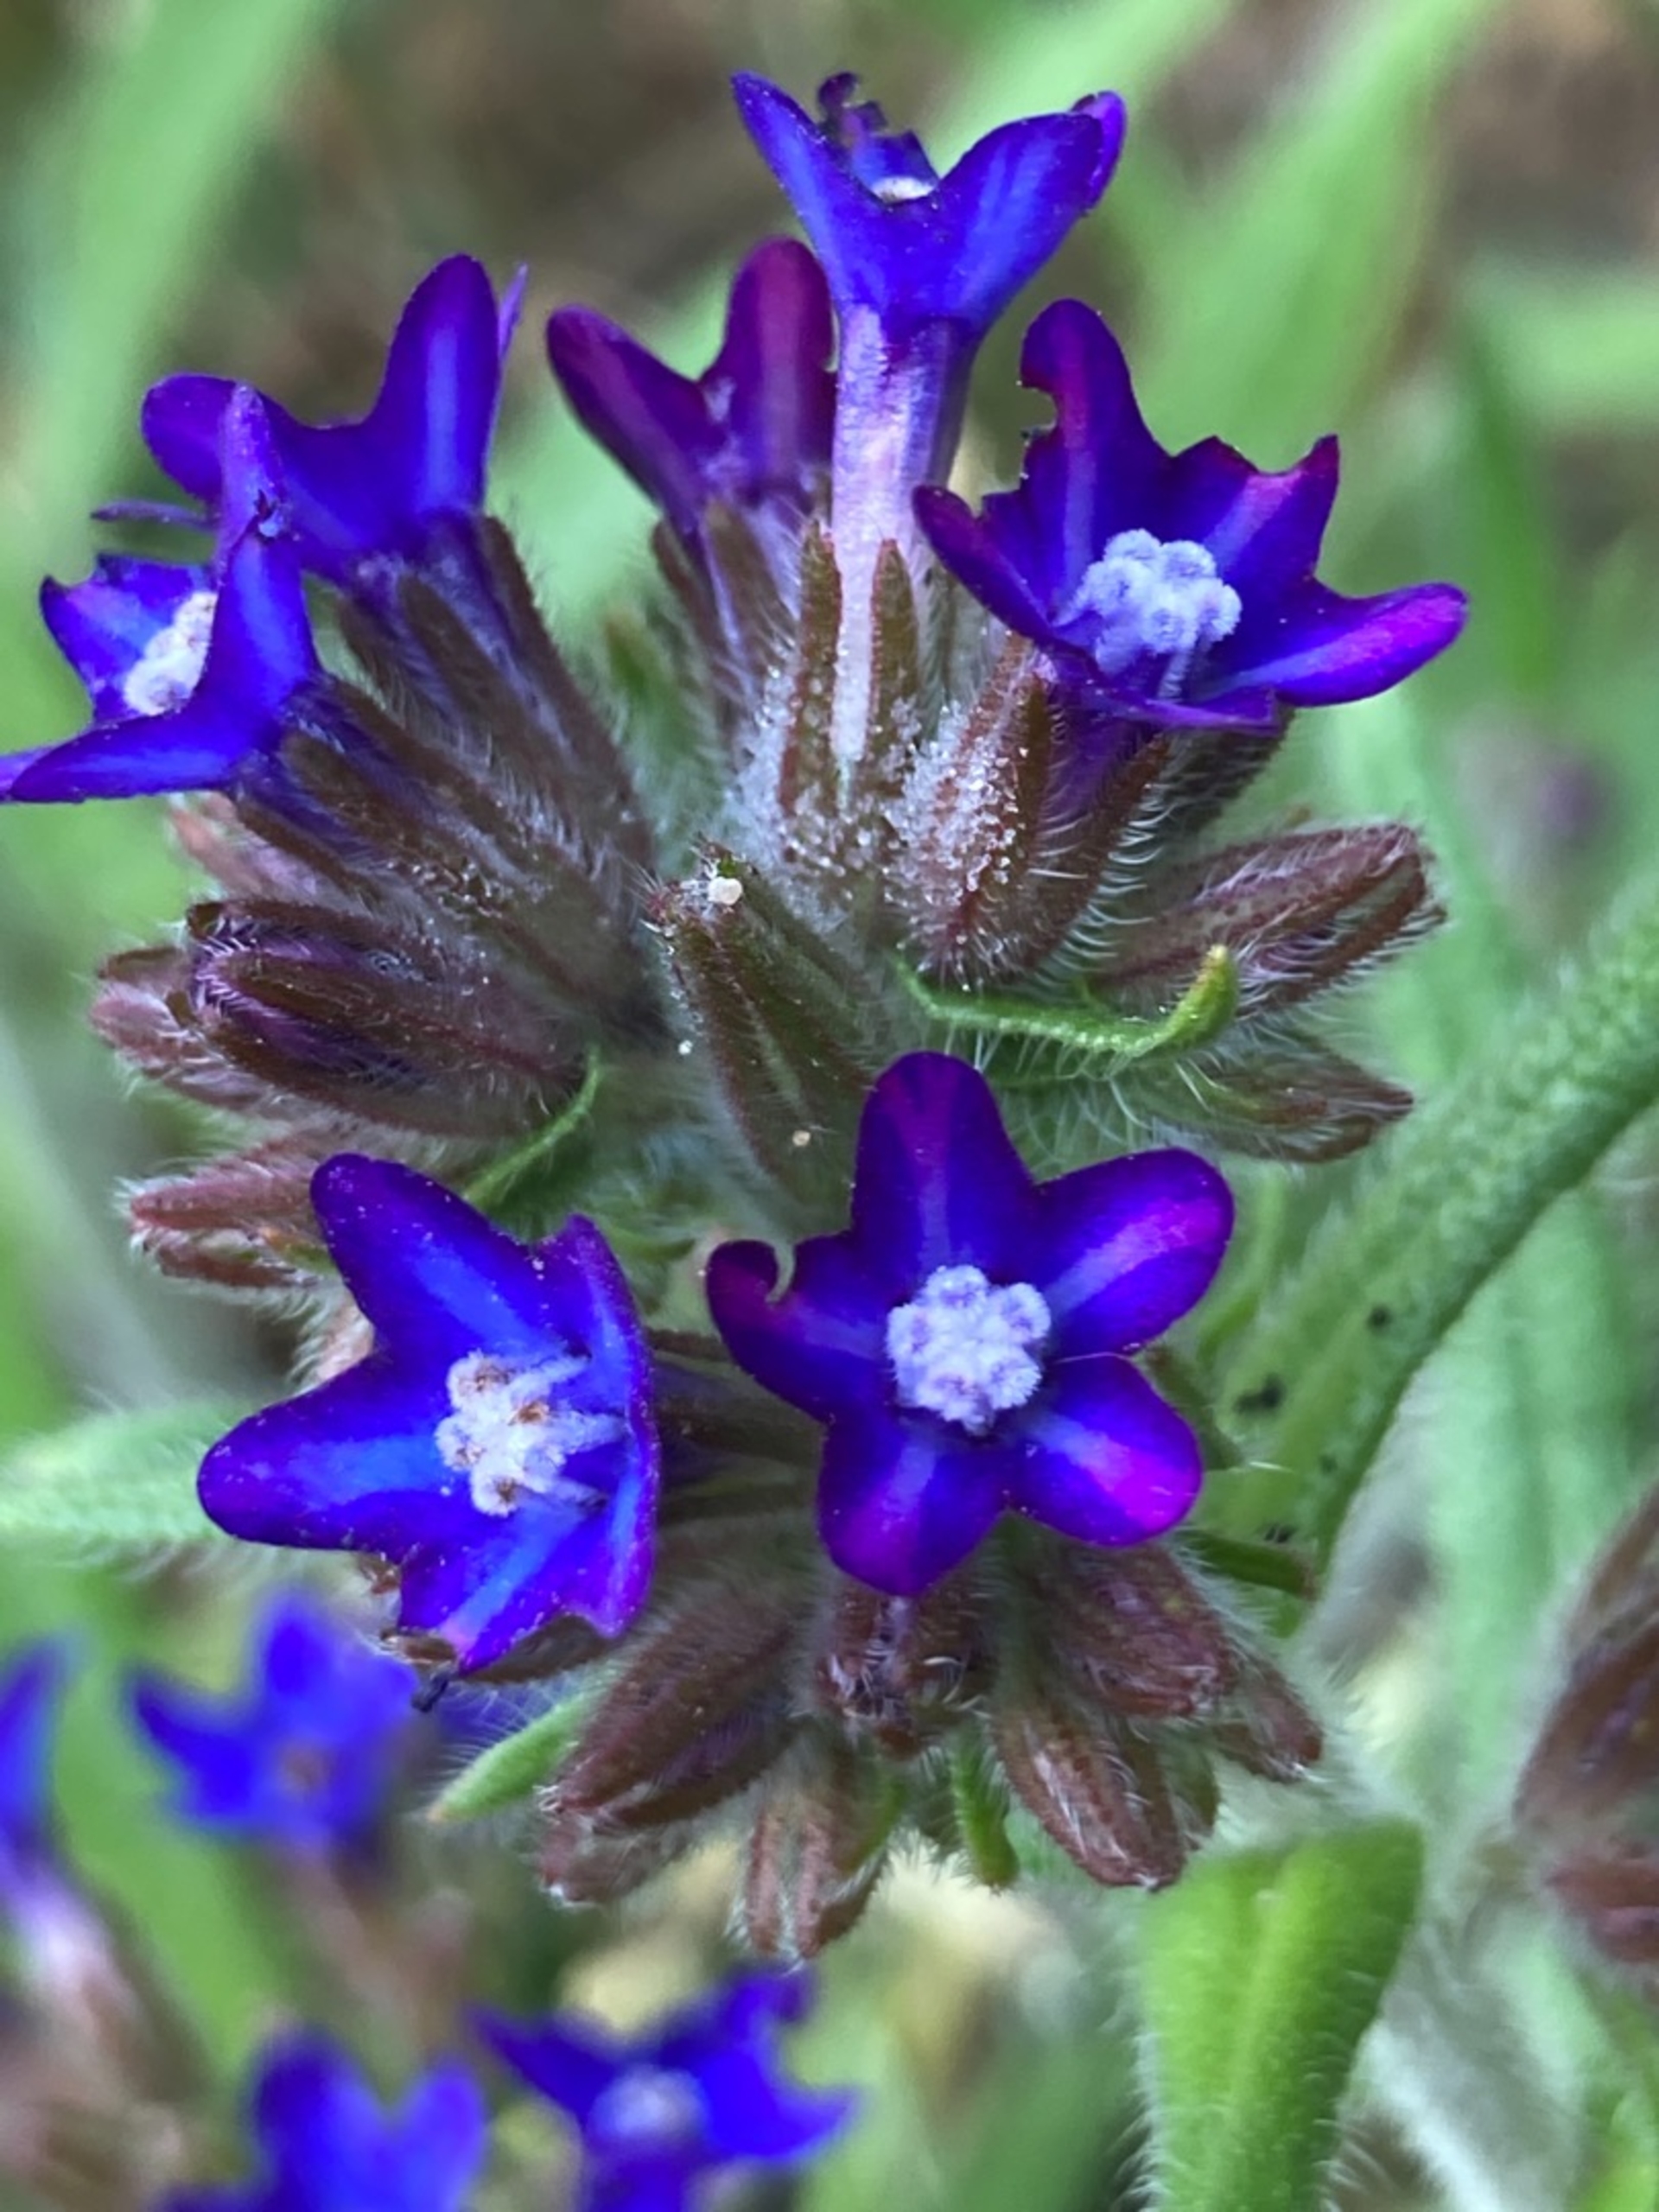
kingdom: Plantae
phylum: Tracheophyta
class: Magnoliopsida
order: Boraginales
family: Boraginaceae
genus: Anchusa
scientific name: Anchusa officinalis
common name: Læge-oksetunge
